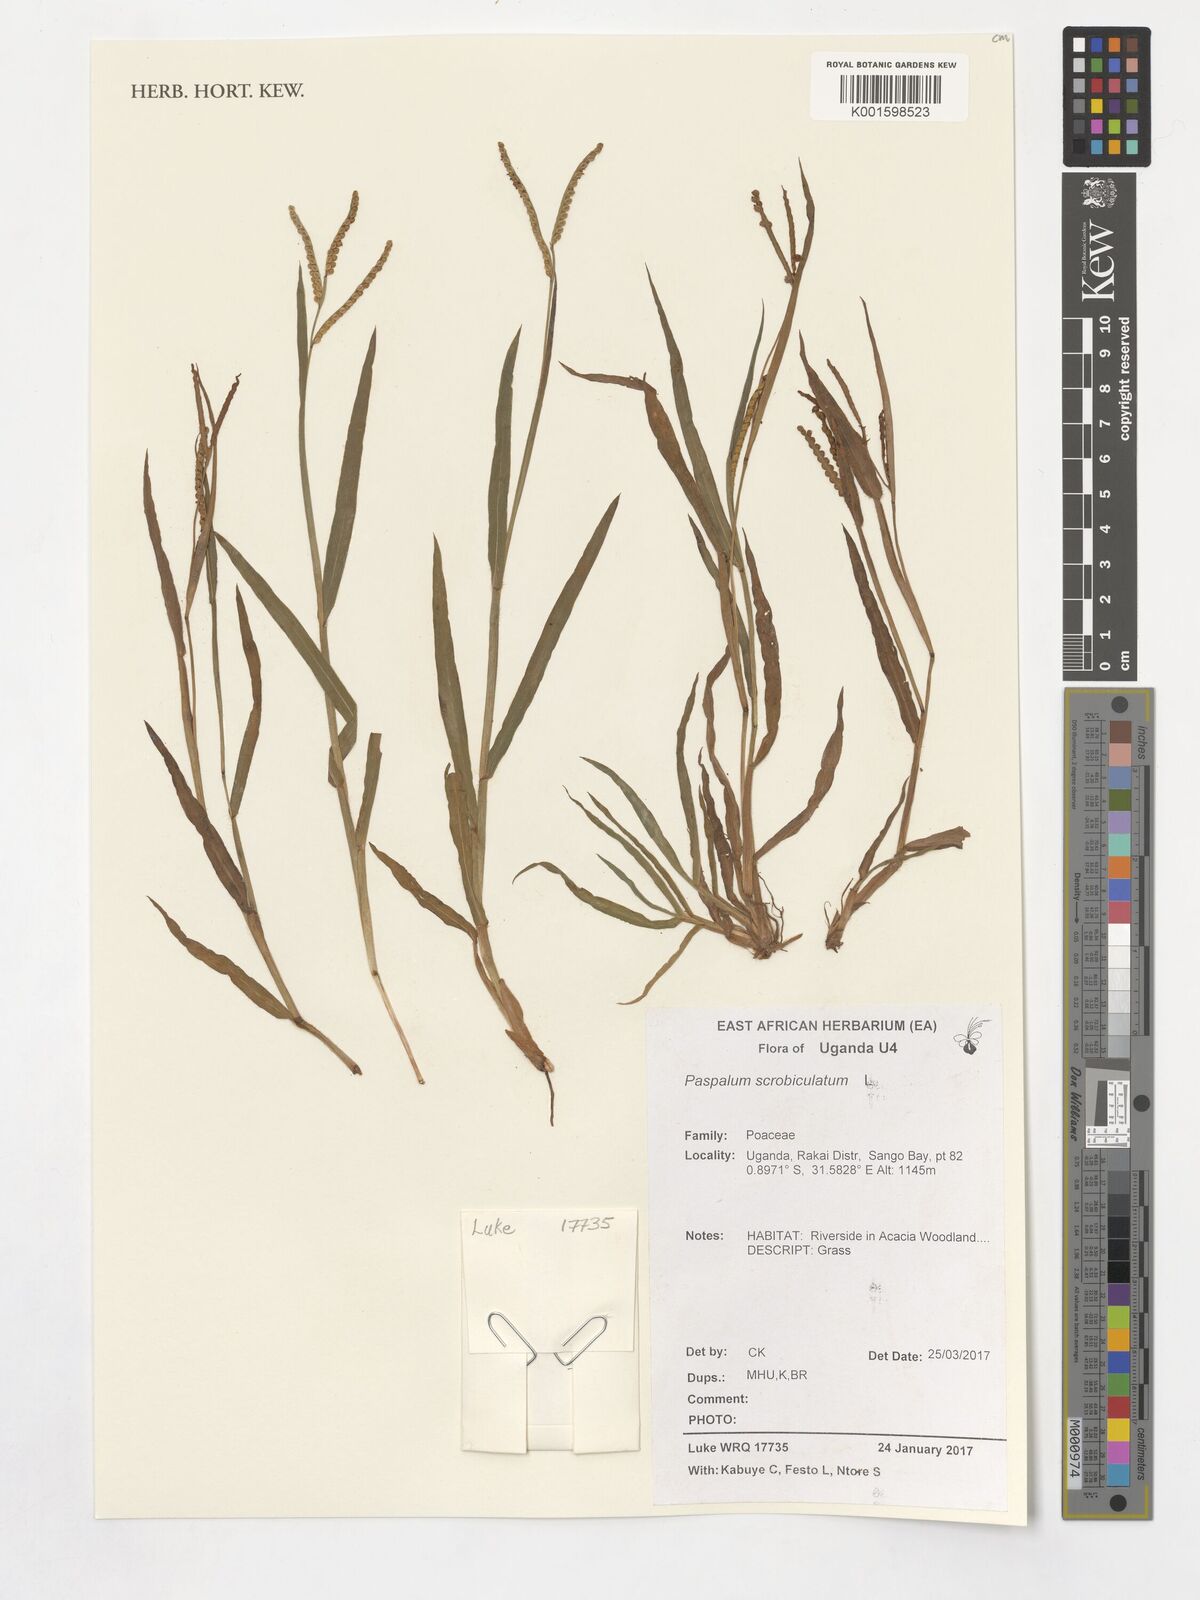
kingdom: Plantae
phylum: Tracheophyta
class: Liliopsida
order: Poales
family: Poaceae
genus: Paspalum
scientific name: Paspalum scrobiculatum
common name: Kodo millet
